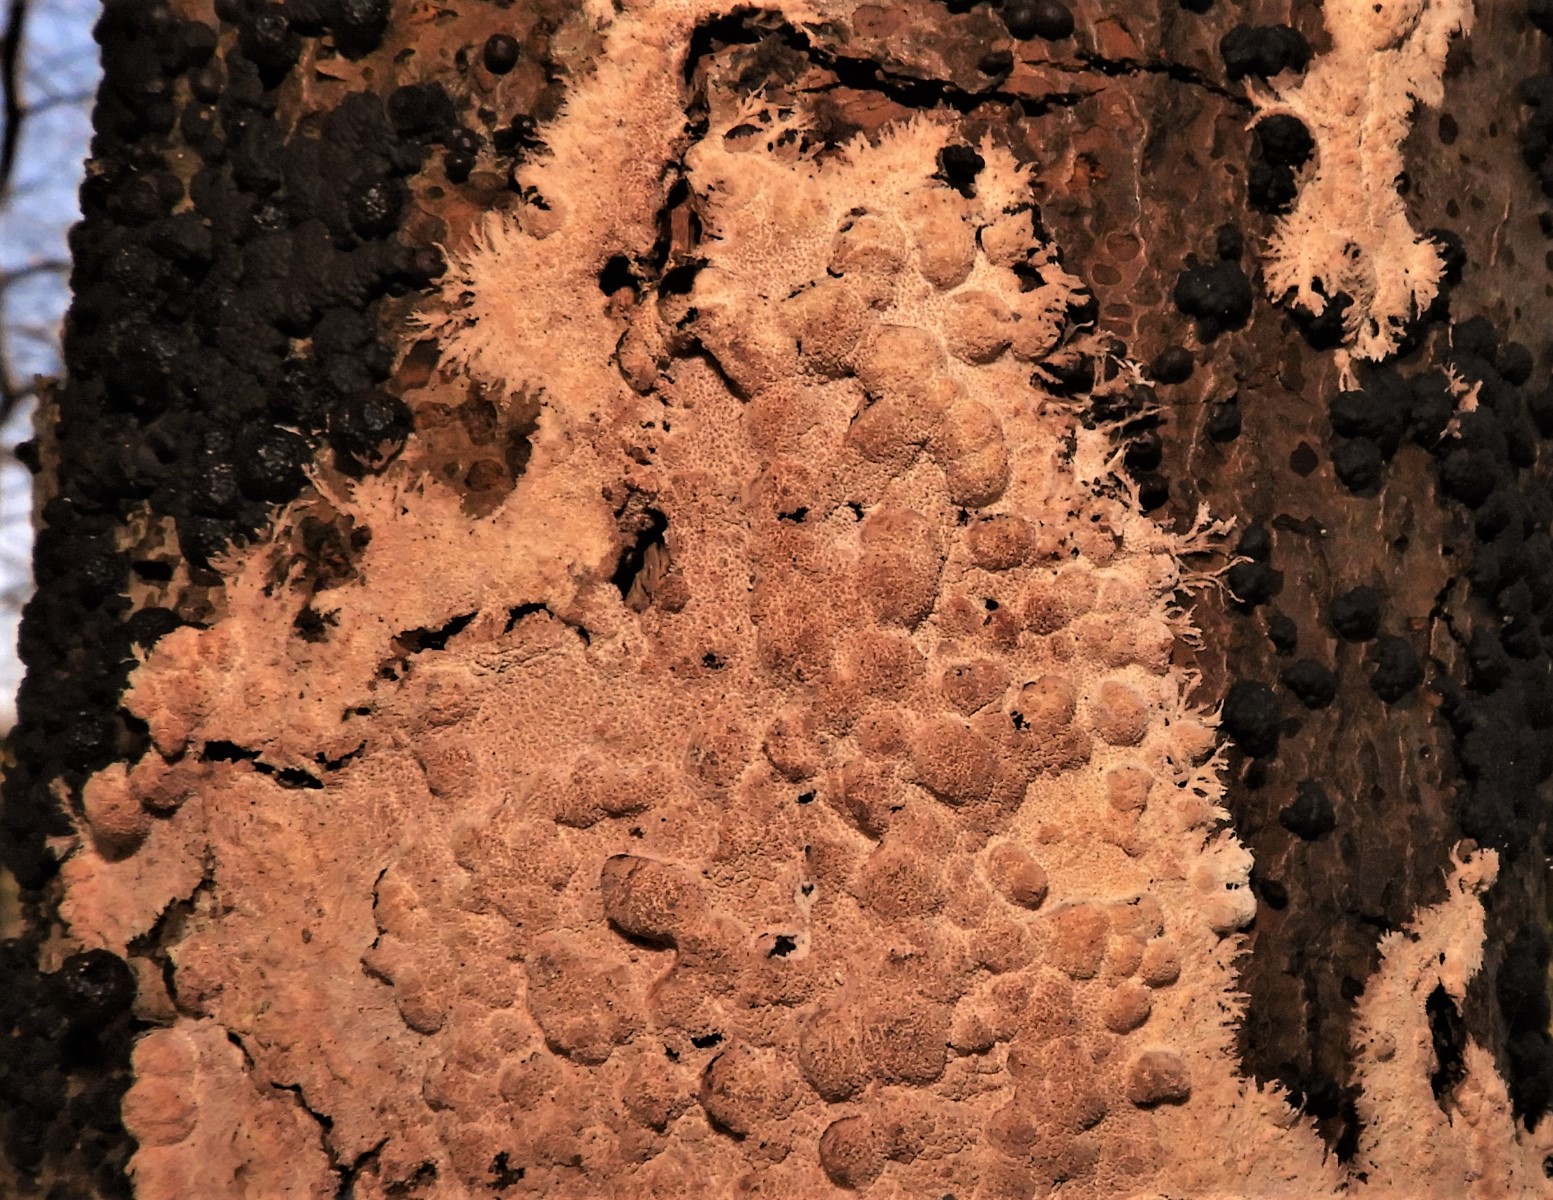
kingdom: Fungi
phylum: Basidiomycota
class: Agaricomycetes
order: Russulales
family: Peniophoraceae
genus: Peniophora
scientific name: Peniophora incarnata
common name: laksefarvet voksskind
